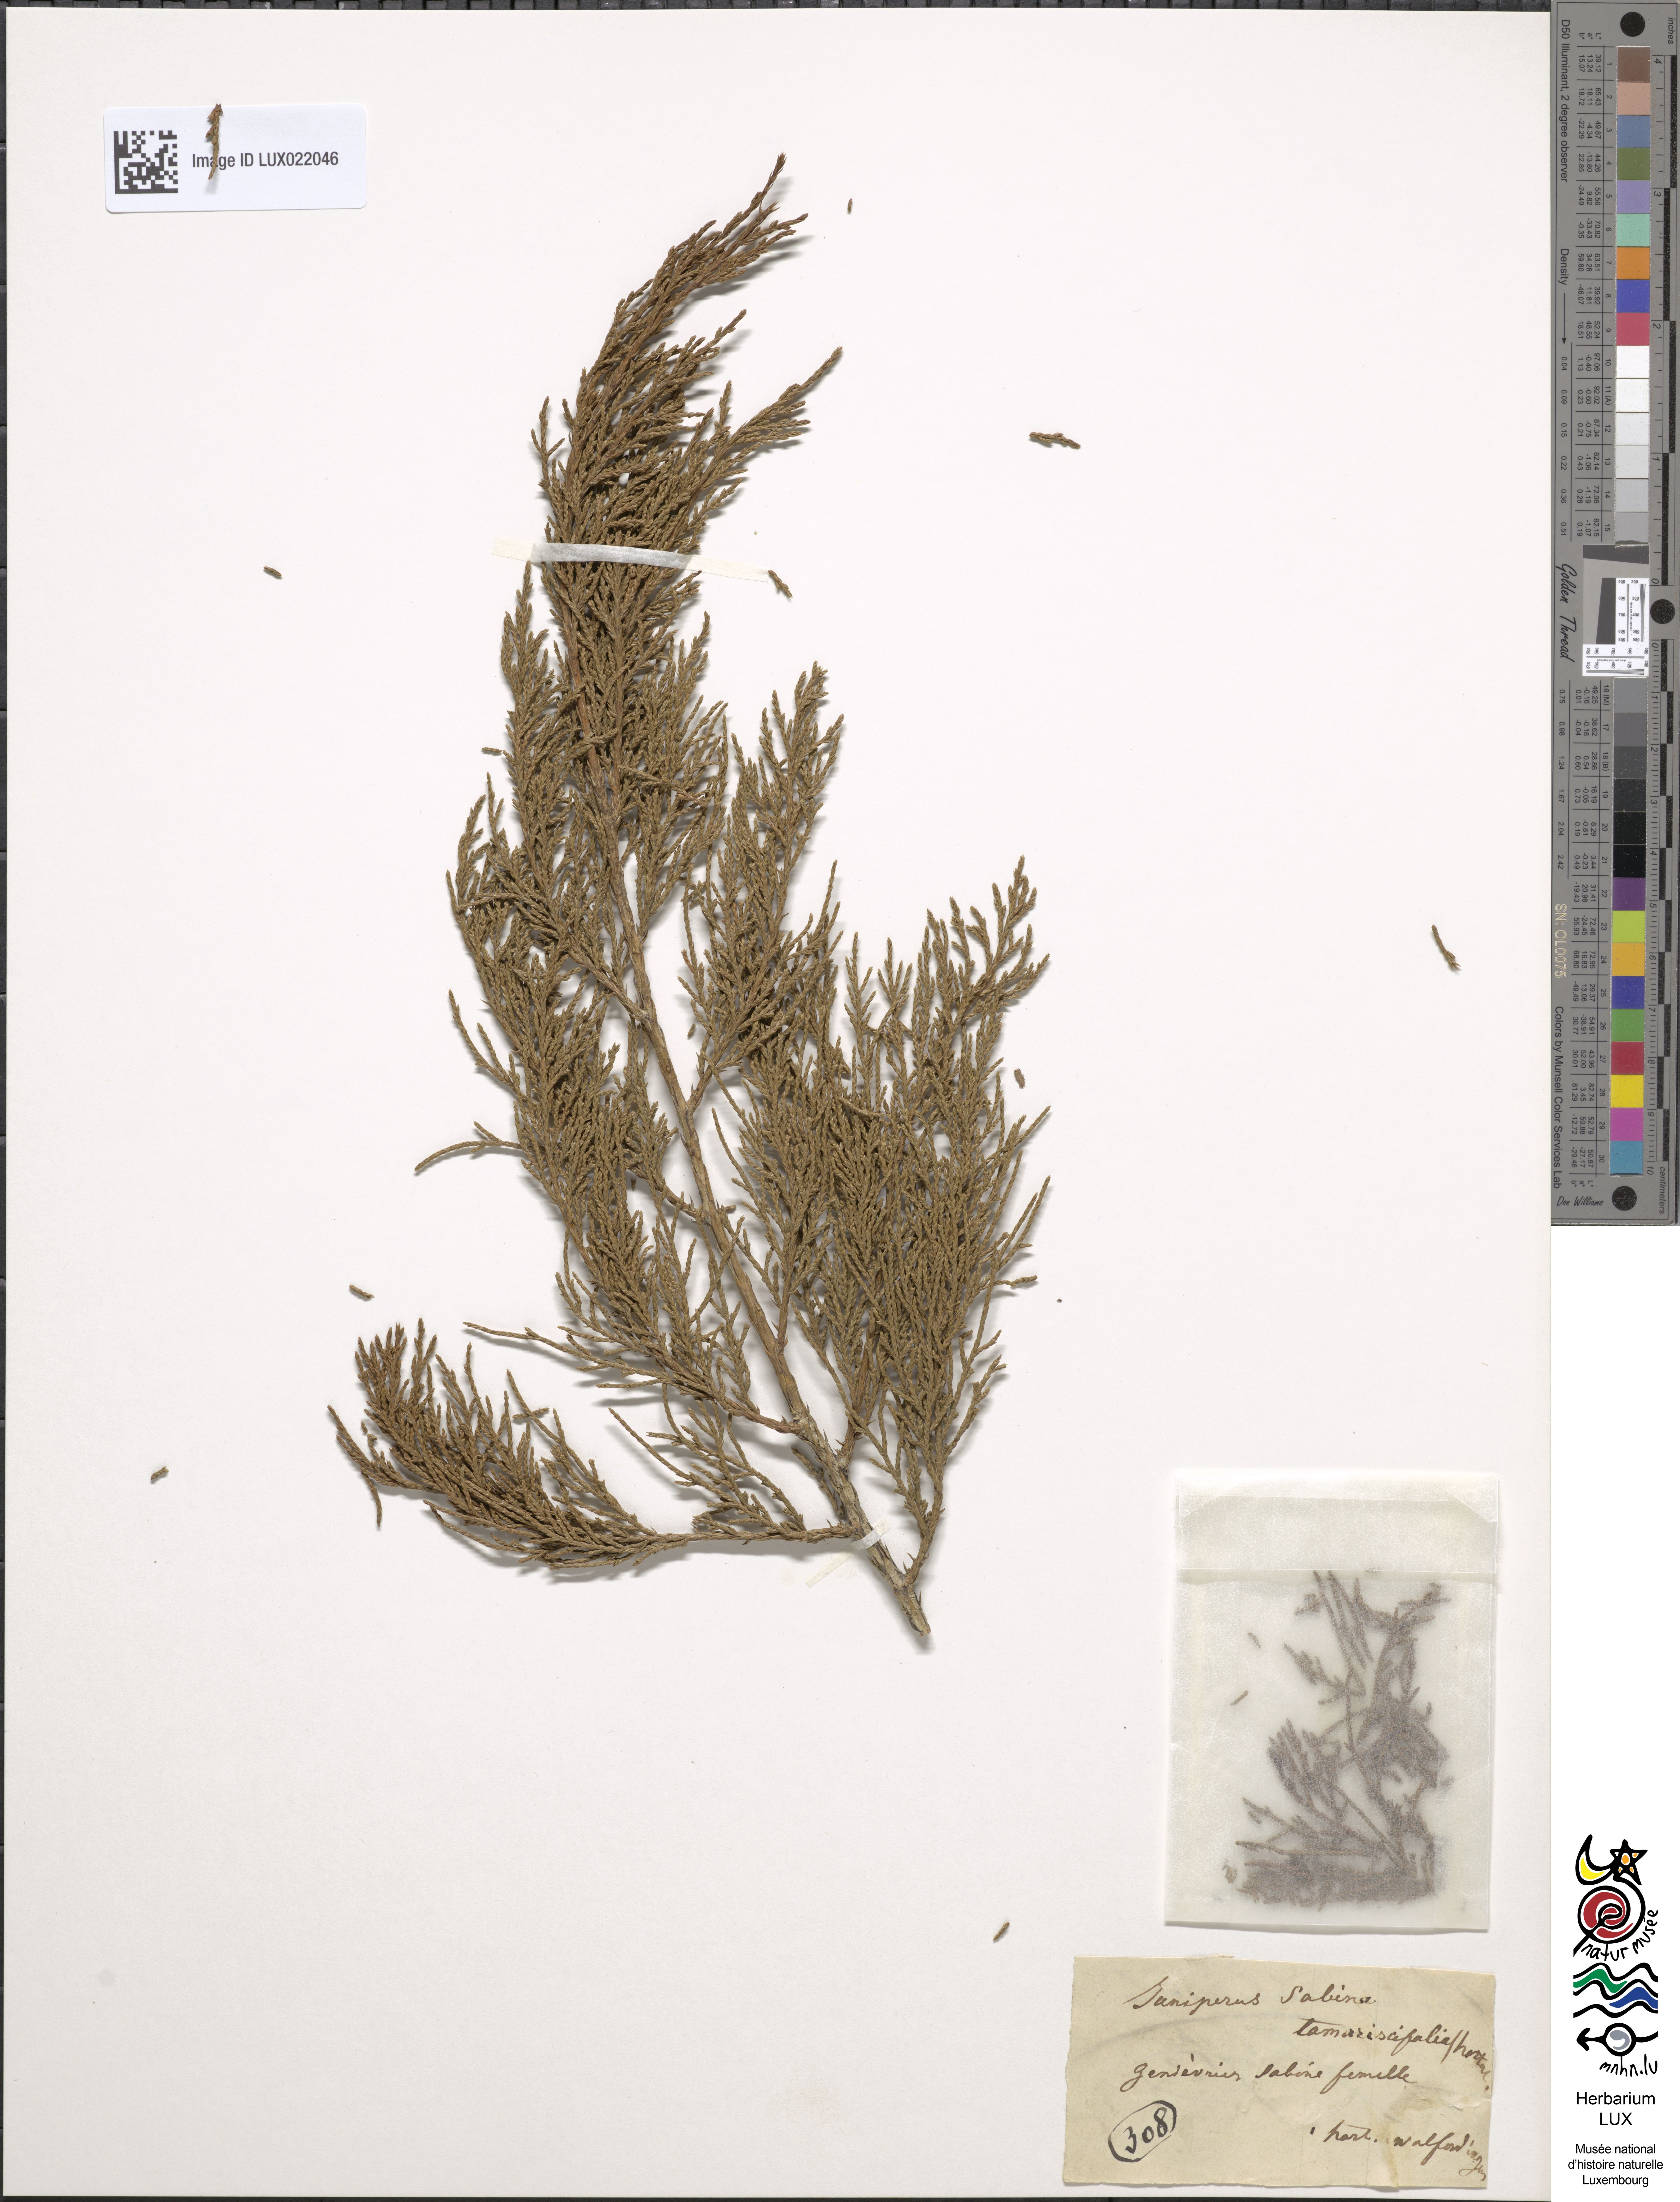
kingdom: Plantae
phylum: Tracheophyta
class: Pinopsida
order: Pinales
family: Cupressaceae
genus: Juniperus
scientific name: Juniperus sabina
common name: Savin
